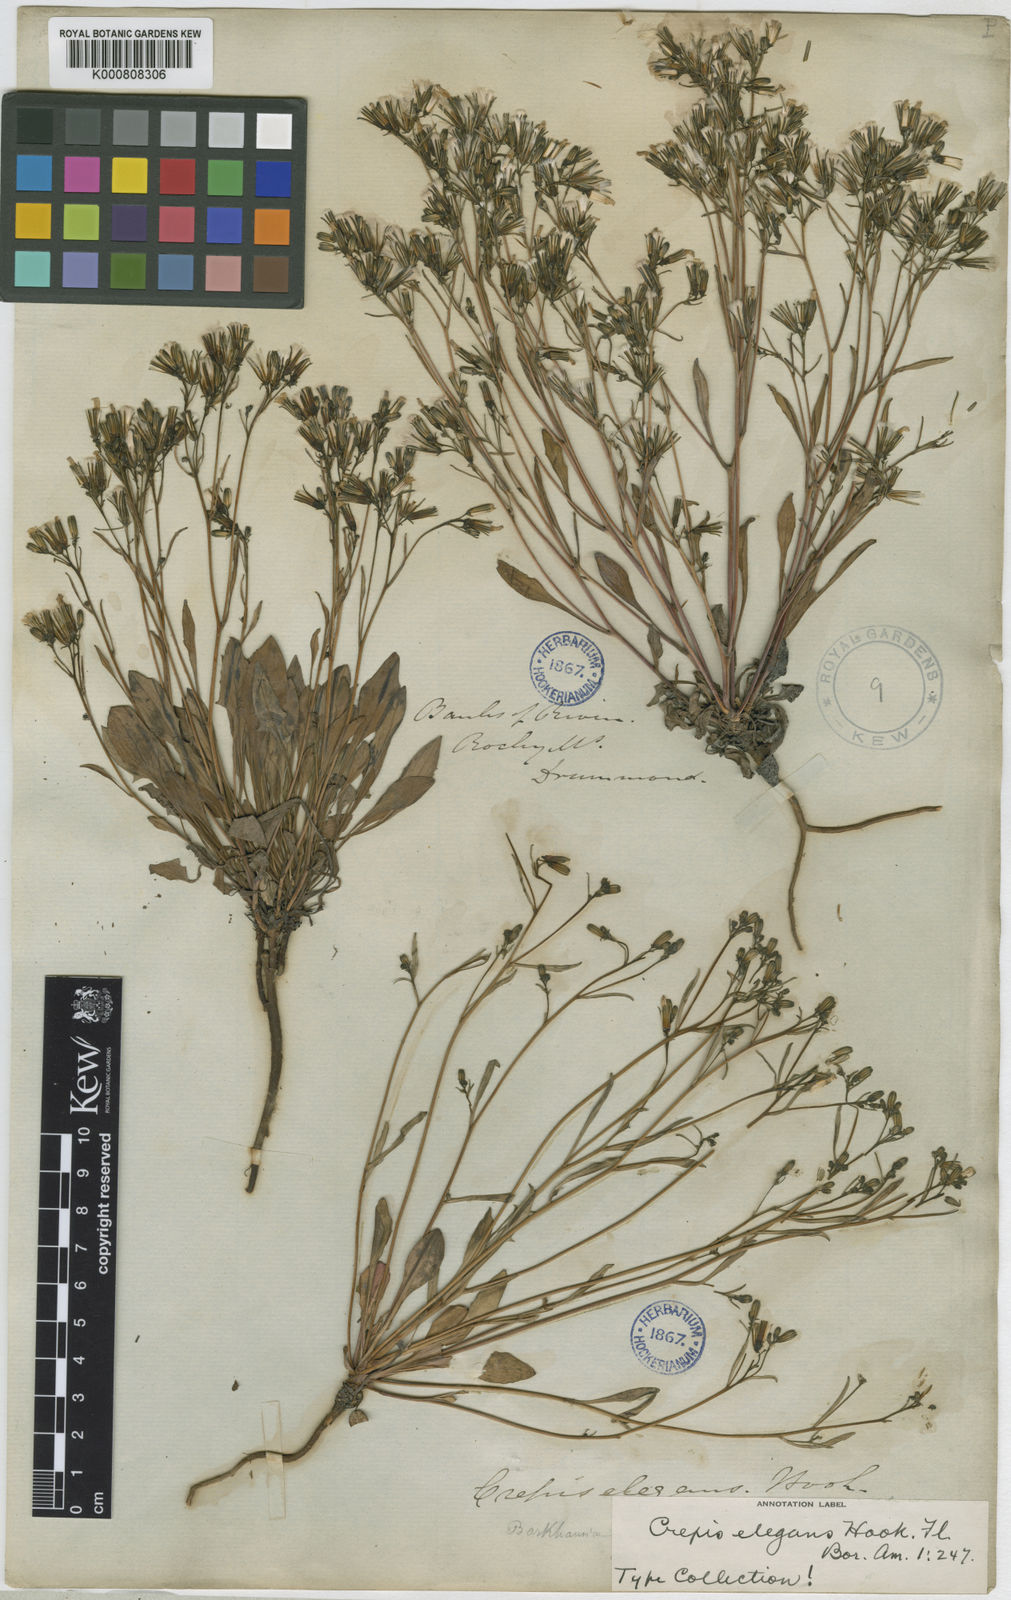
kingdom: Plantae
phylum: Tracheophyta
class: Magnoliopsida
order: Asterales
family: Asteraceae
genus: Askellia
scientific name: Askellia elegans
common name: Elegant hawksbeard
